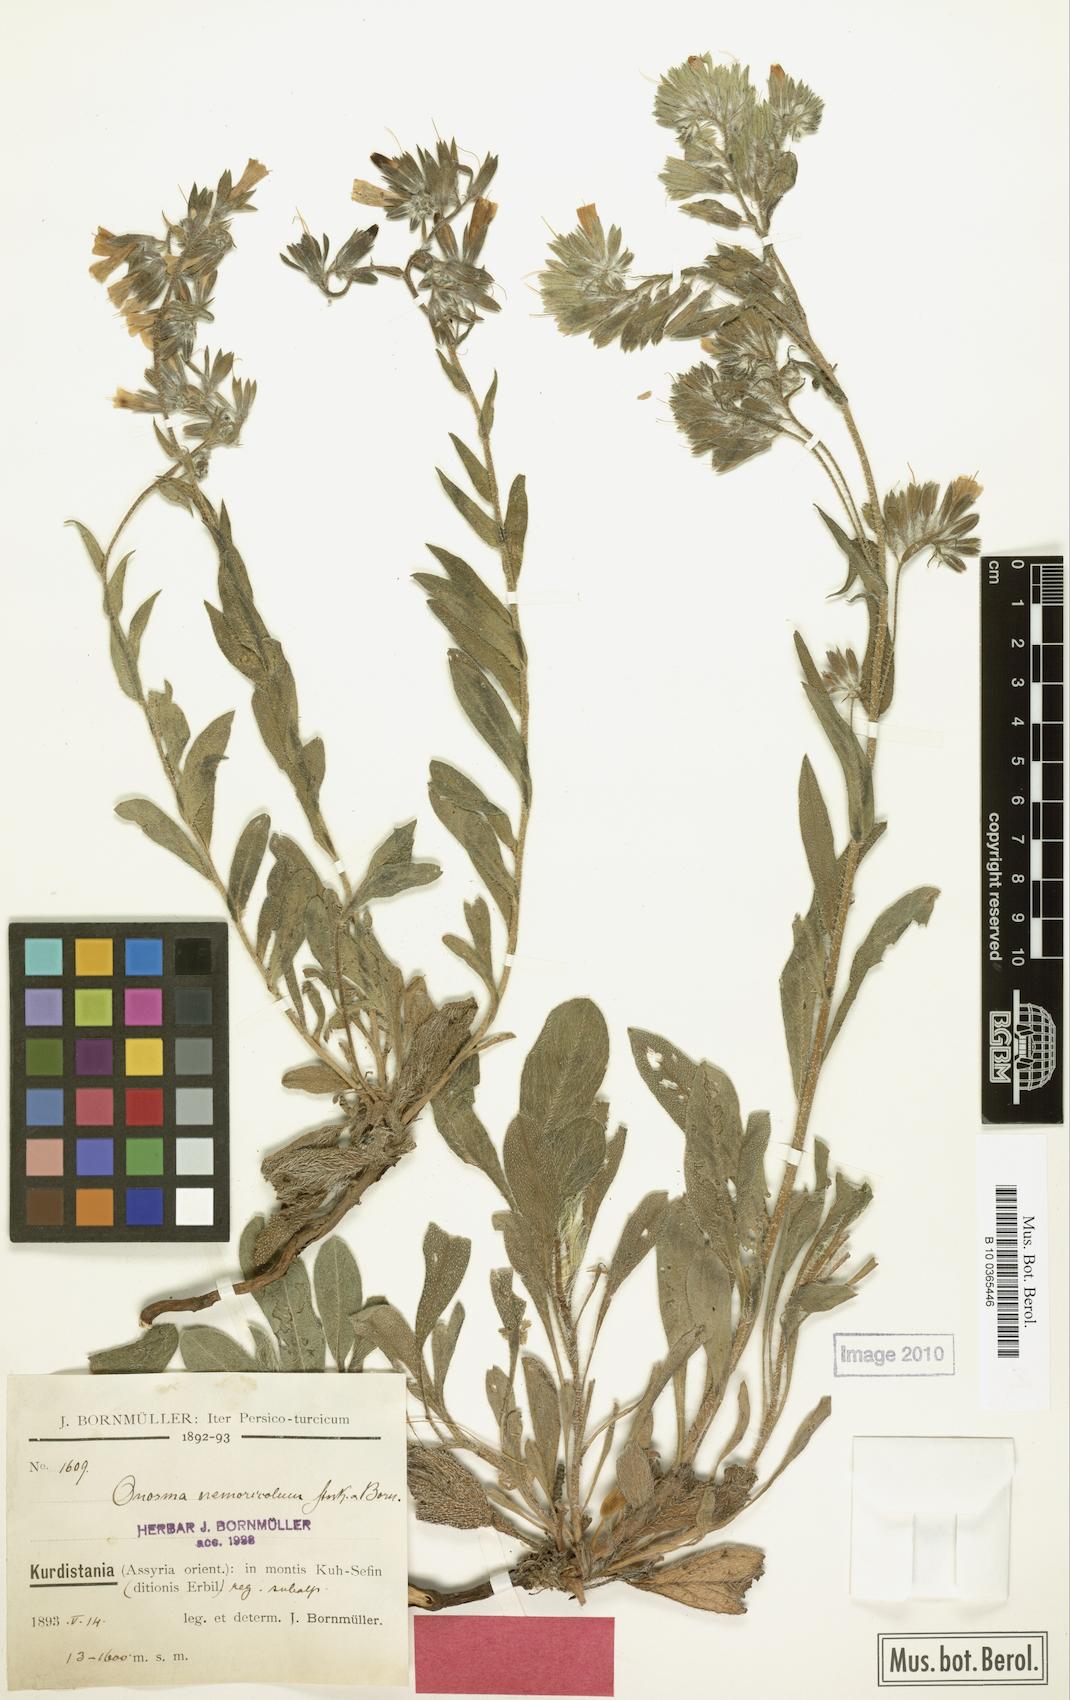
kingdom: Plantae
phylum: Tracheophyta
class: Magnoliopsida
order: Boraginales
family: Boraginaceae
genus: Onosma
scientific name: Onosma nemoricola
